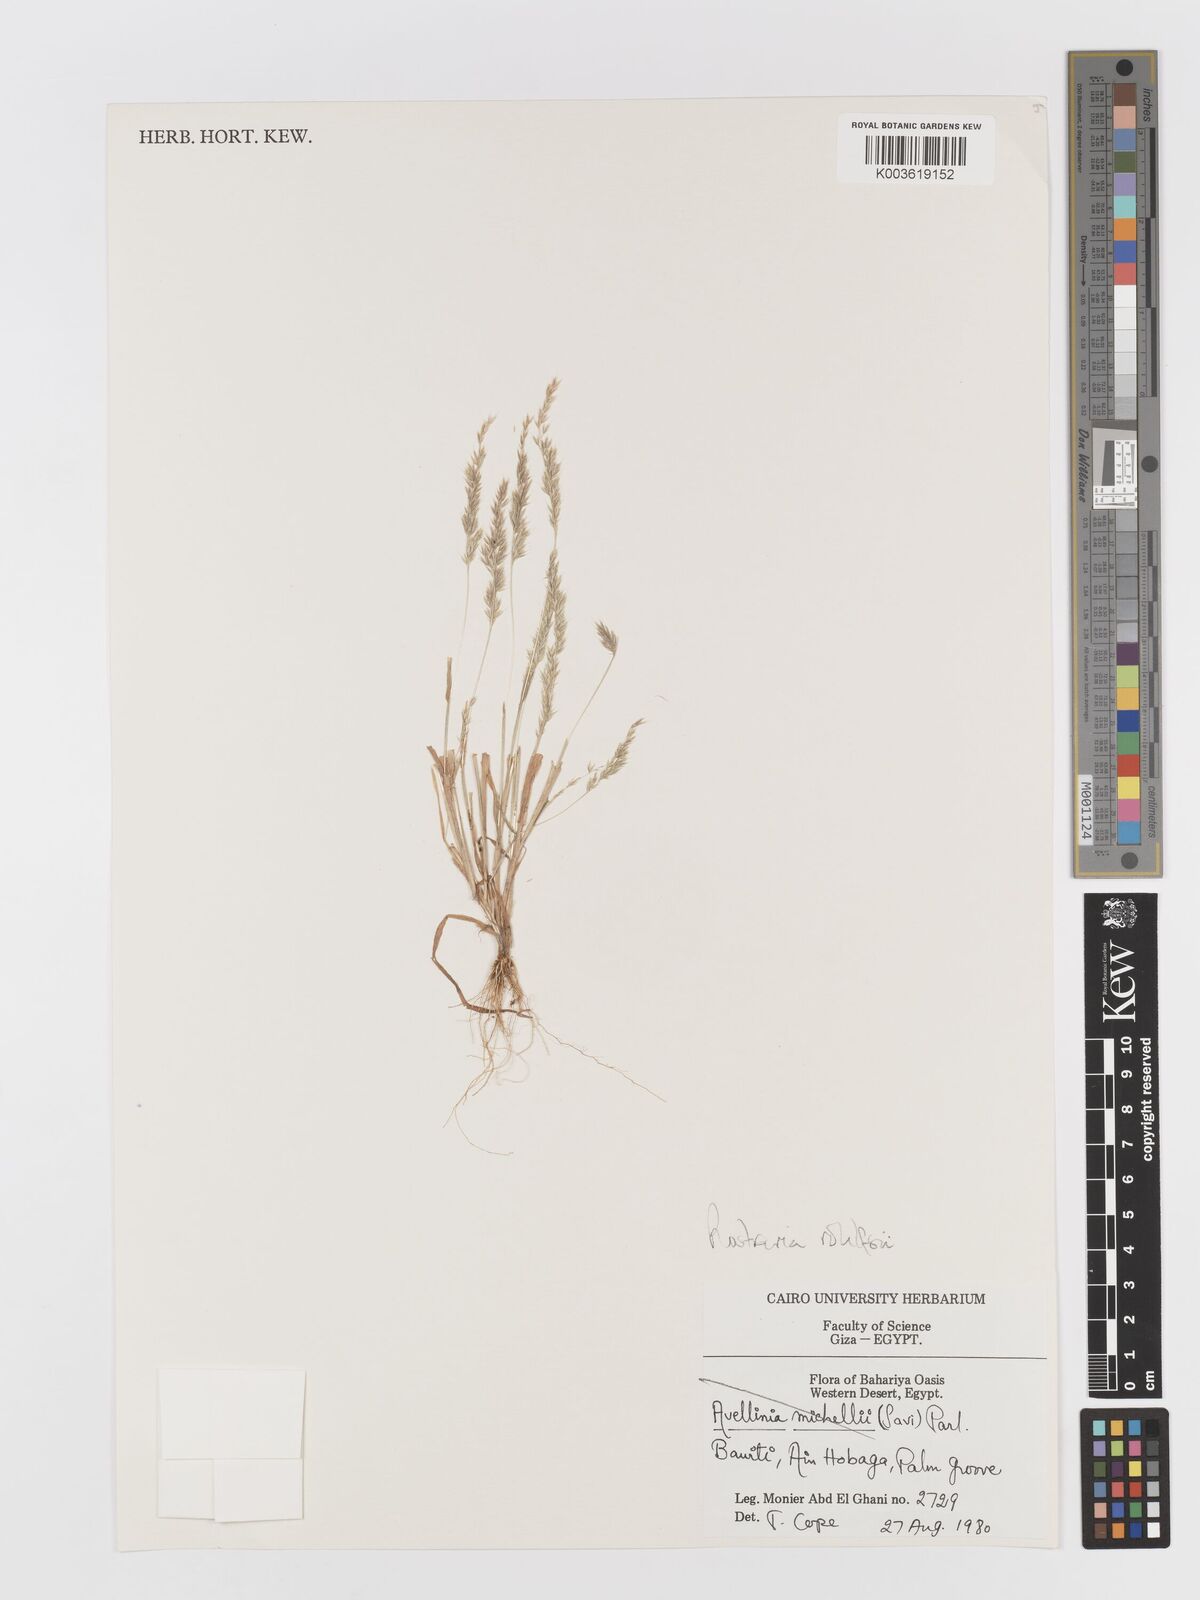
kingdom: Plantae
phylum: Tracheophyta
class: Liliopsida
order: Poales
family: Poaceae
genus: Rostraria
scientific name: Rostraria rohlfsii
